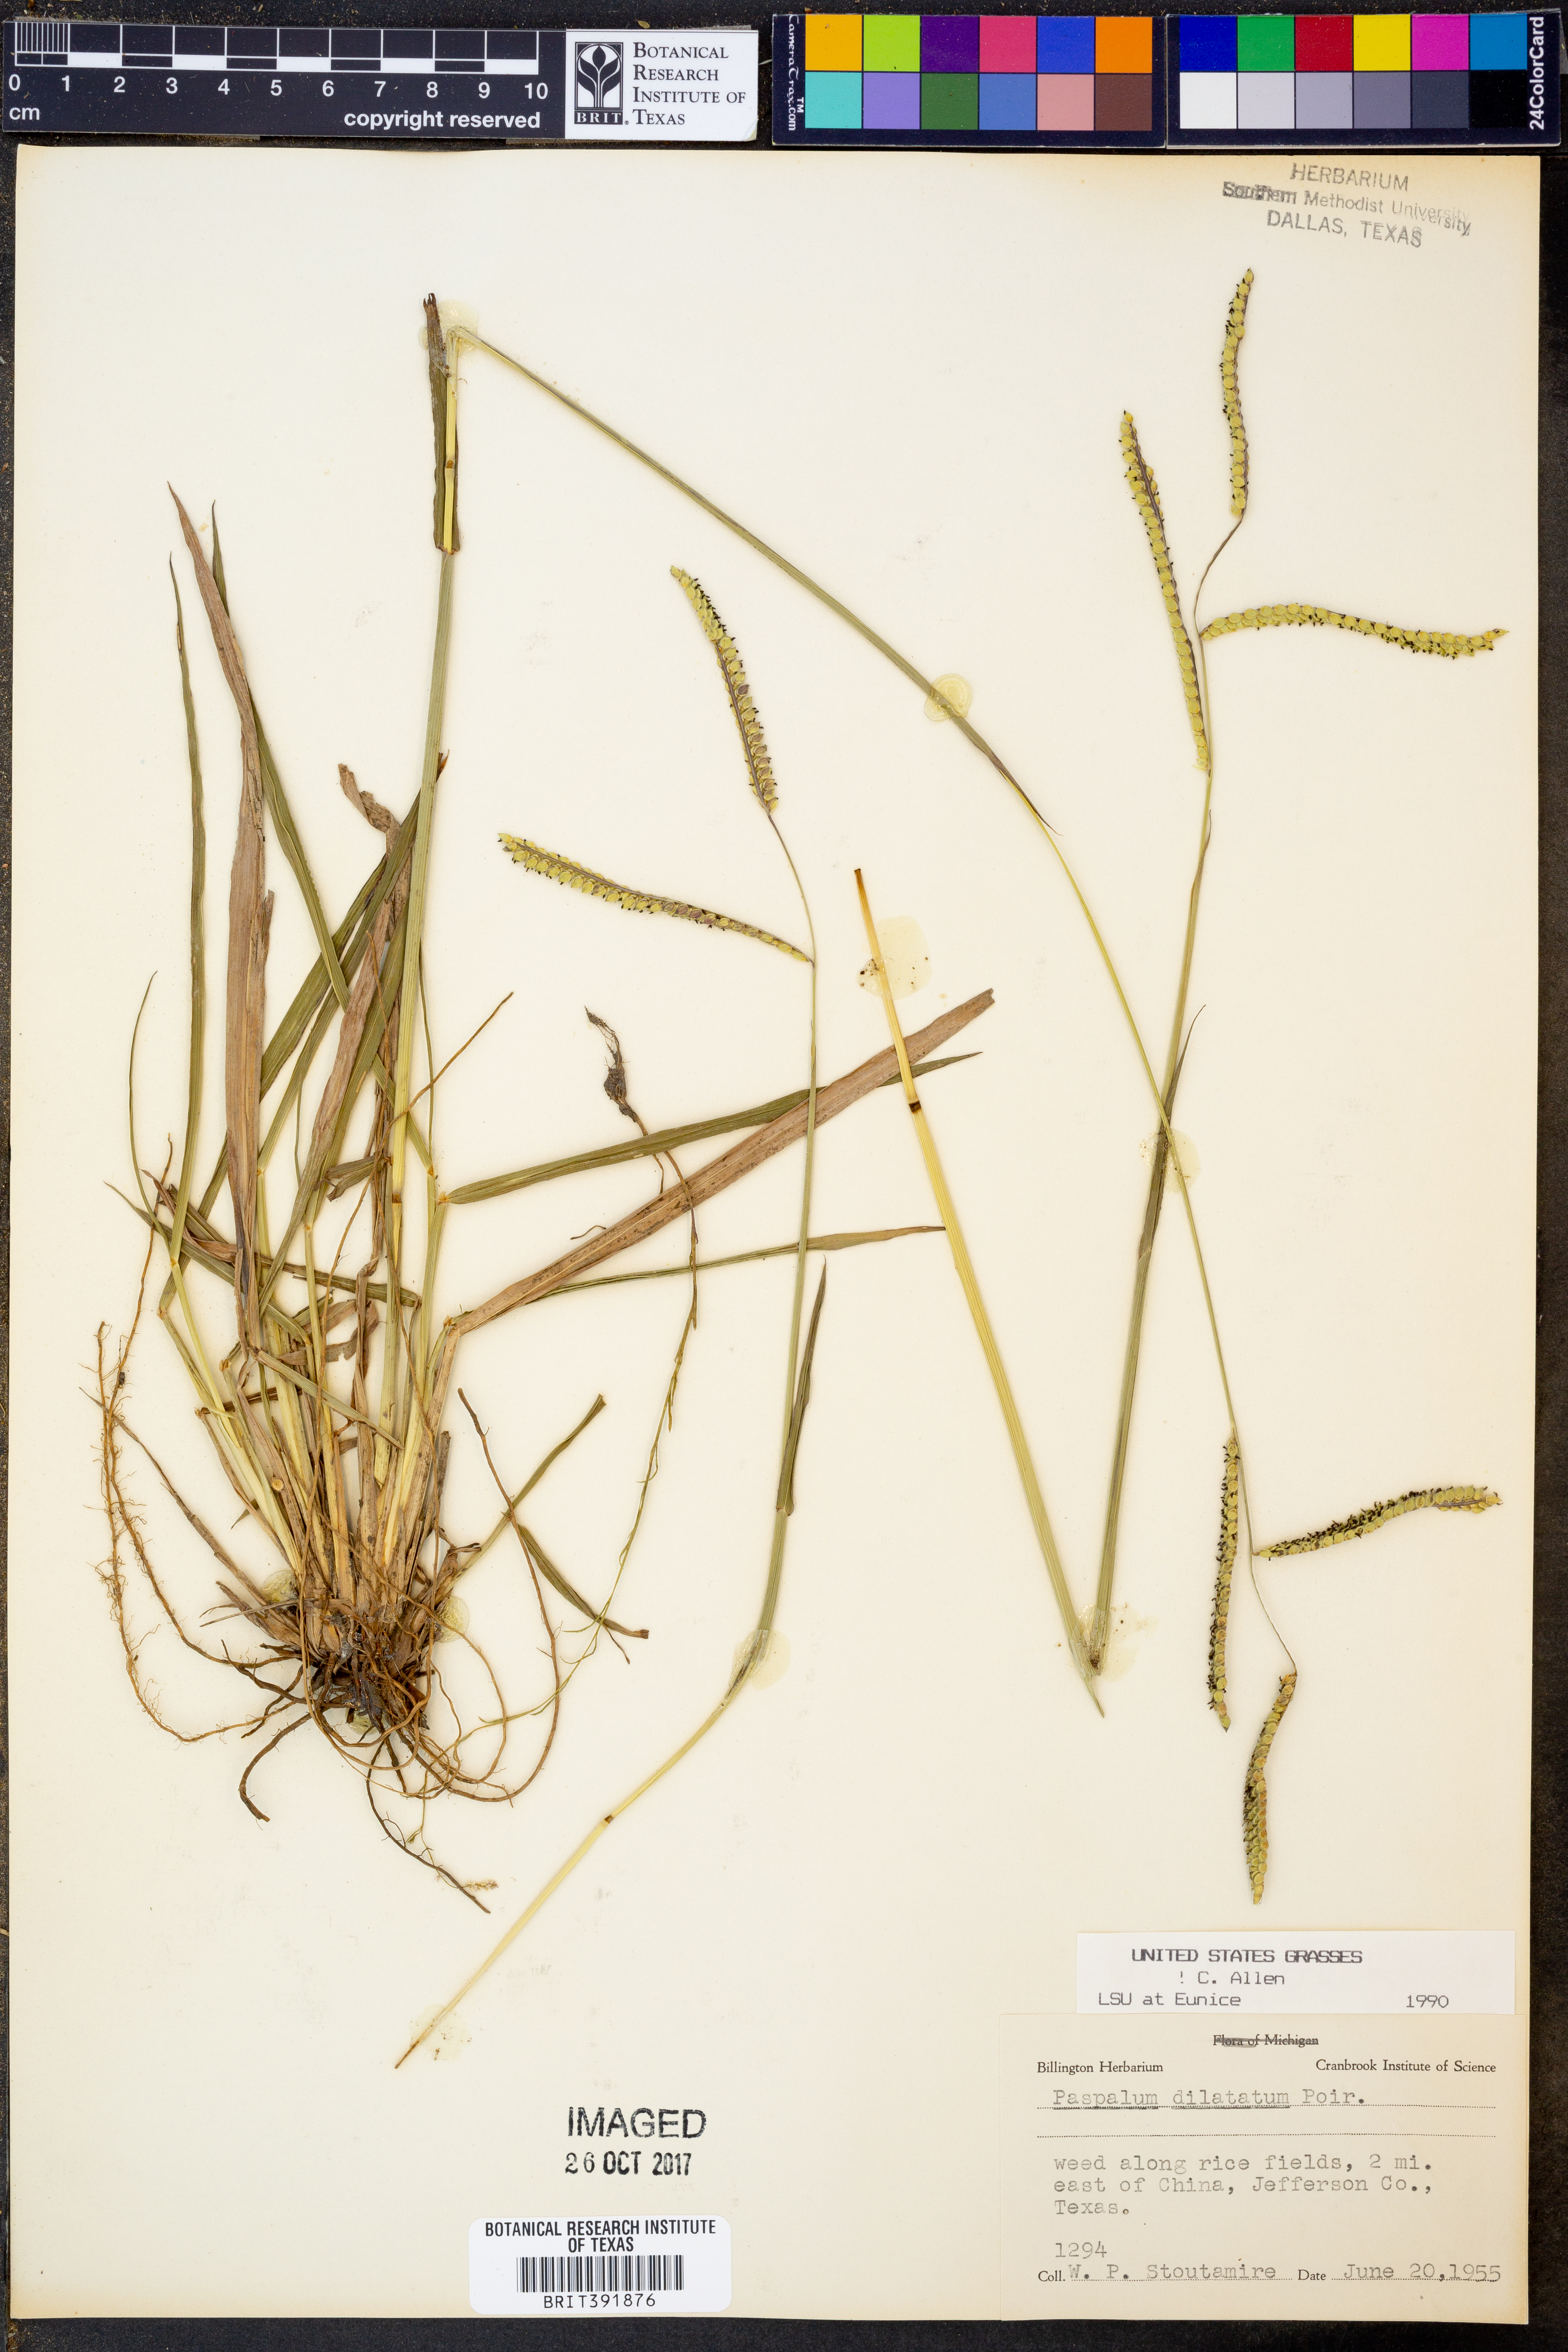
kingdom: Plantae
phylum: Tracheophyta
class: Liliopsida
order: Poales
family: Poaceae
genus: Paspalum
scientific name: Paspalum dilatatum
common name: Dallisgrass
